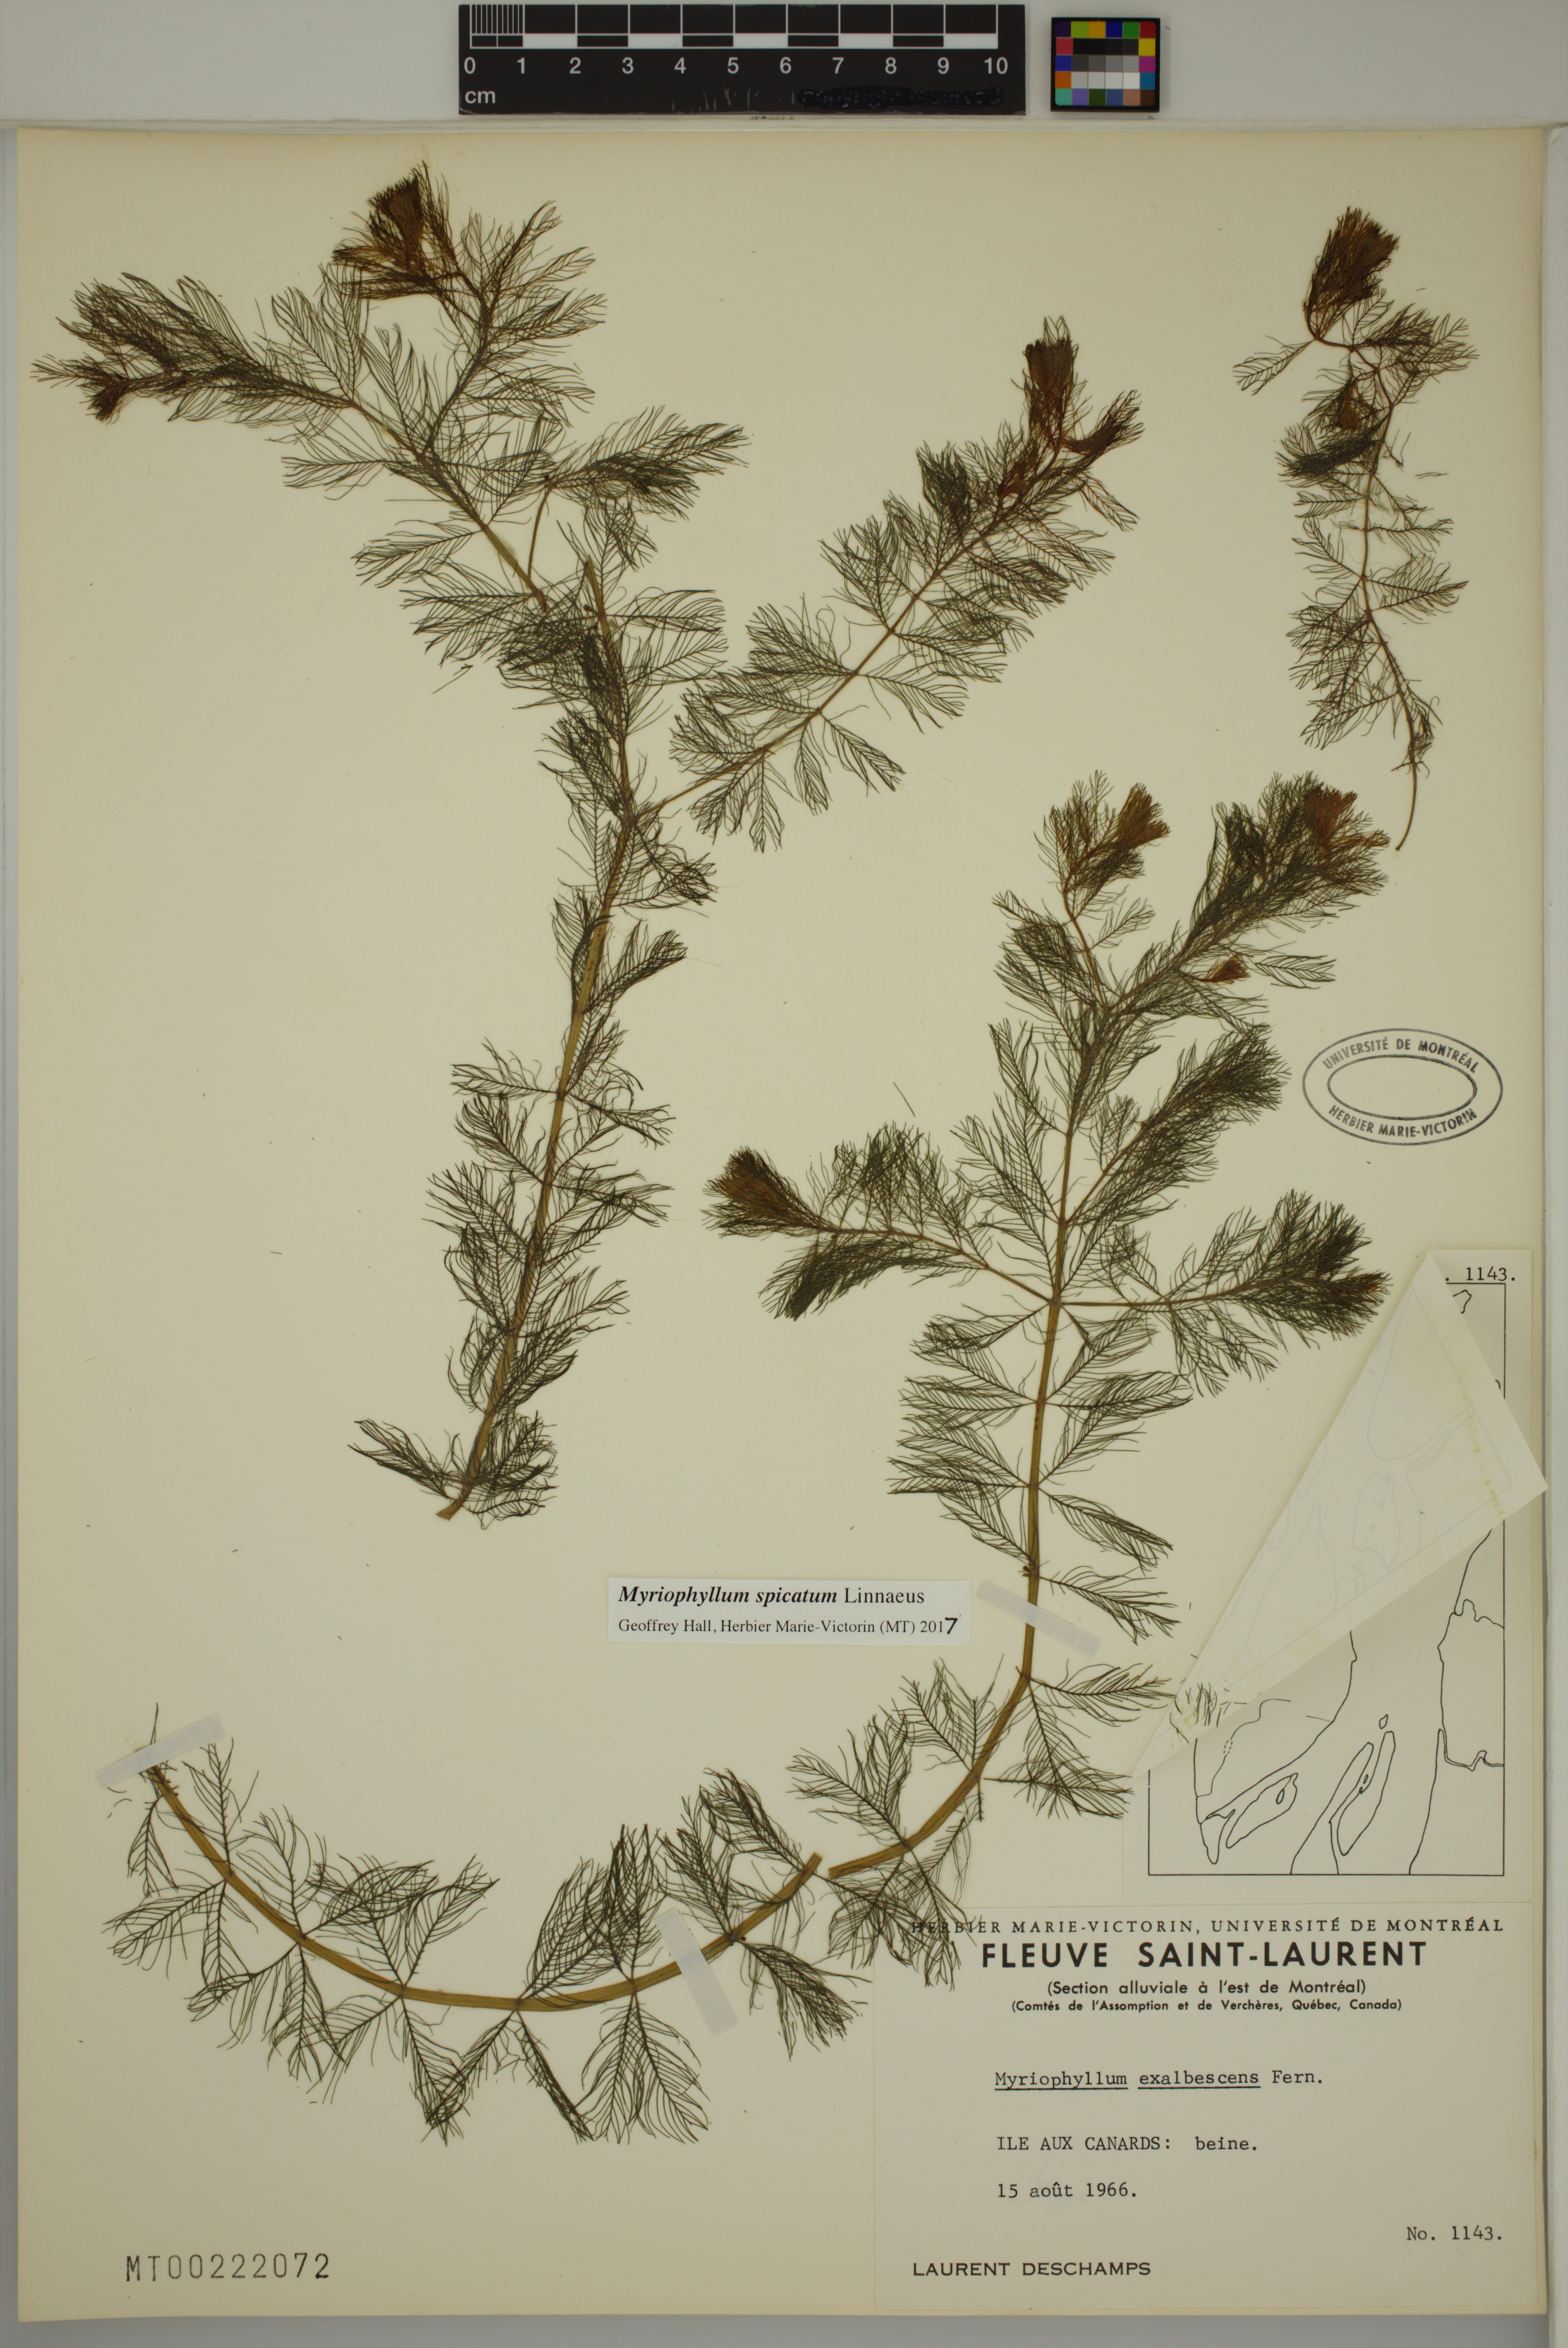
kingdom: Plantae
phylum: Tracheophyta
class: Magnoliopsida
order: Saxifragales
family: Haloragaceae
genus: Myriophyllum
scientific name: Myriophyllum spicatum
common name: Spiked water-milfoil
